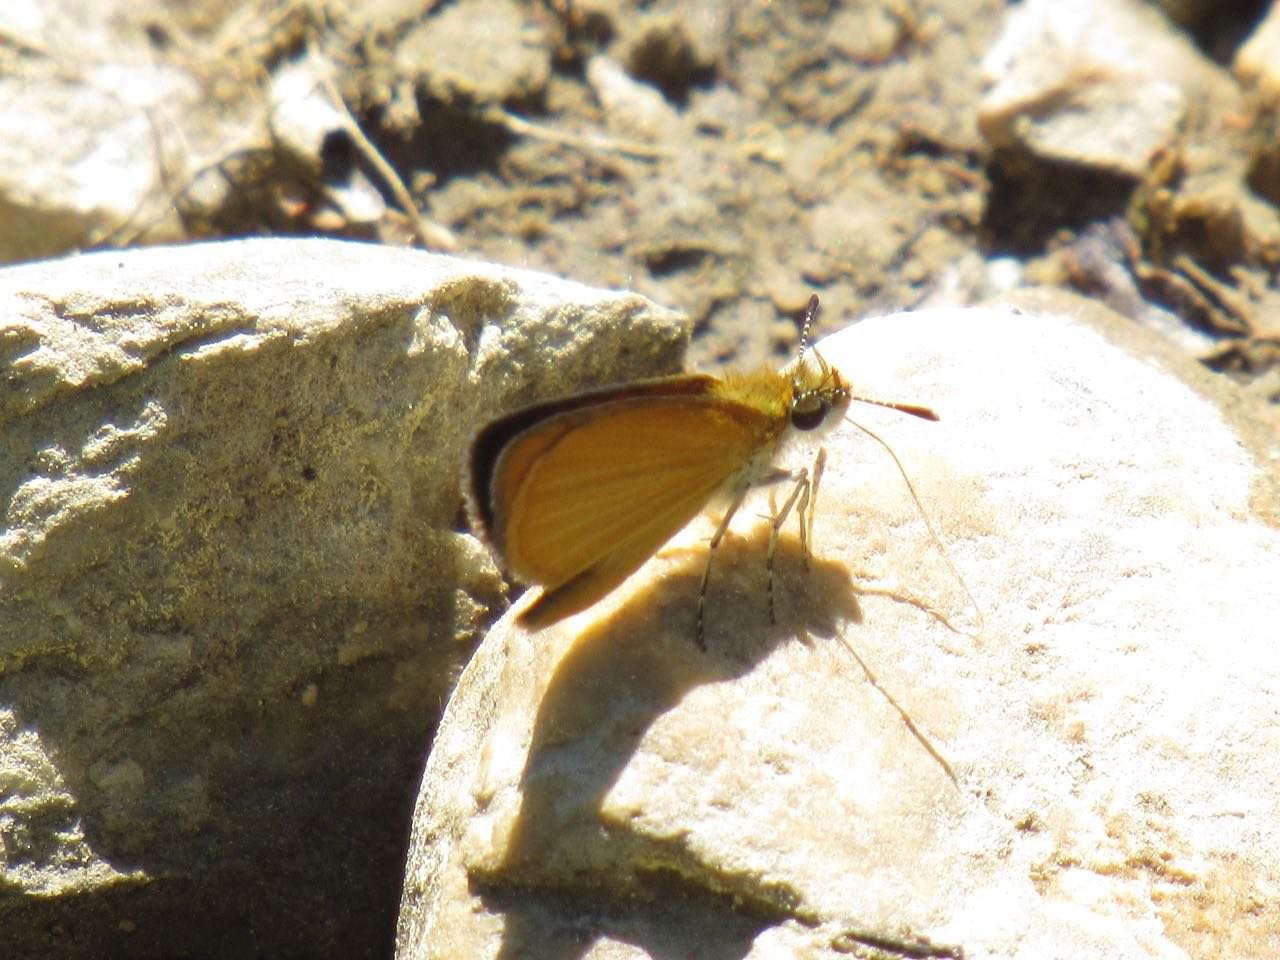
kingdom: Animalia
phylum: Arthropoda
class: Insecta
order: Lepidoptera
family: Hesperiidae
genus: Ancyloxypha
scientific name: Ancyloxypha numitor
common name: Least Skipper
